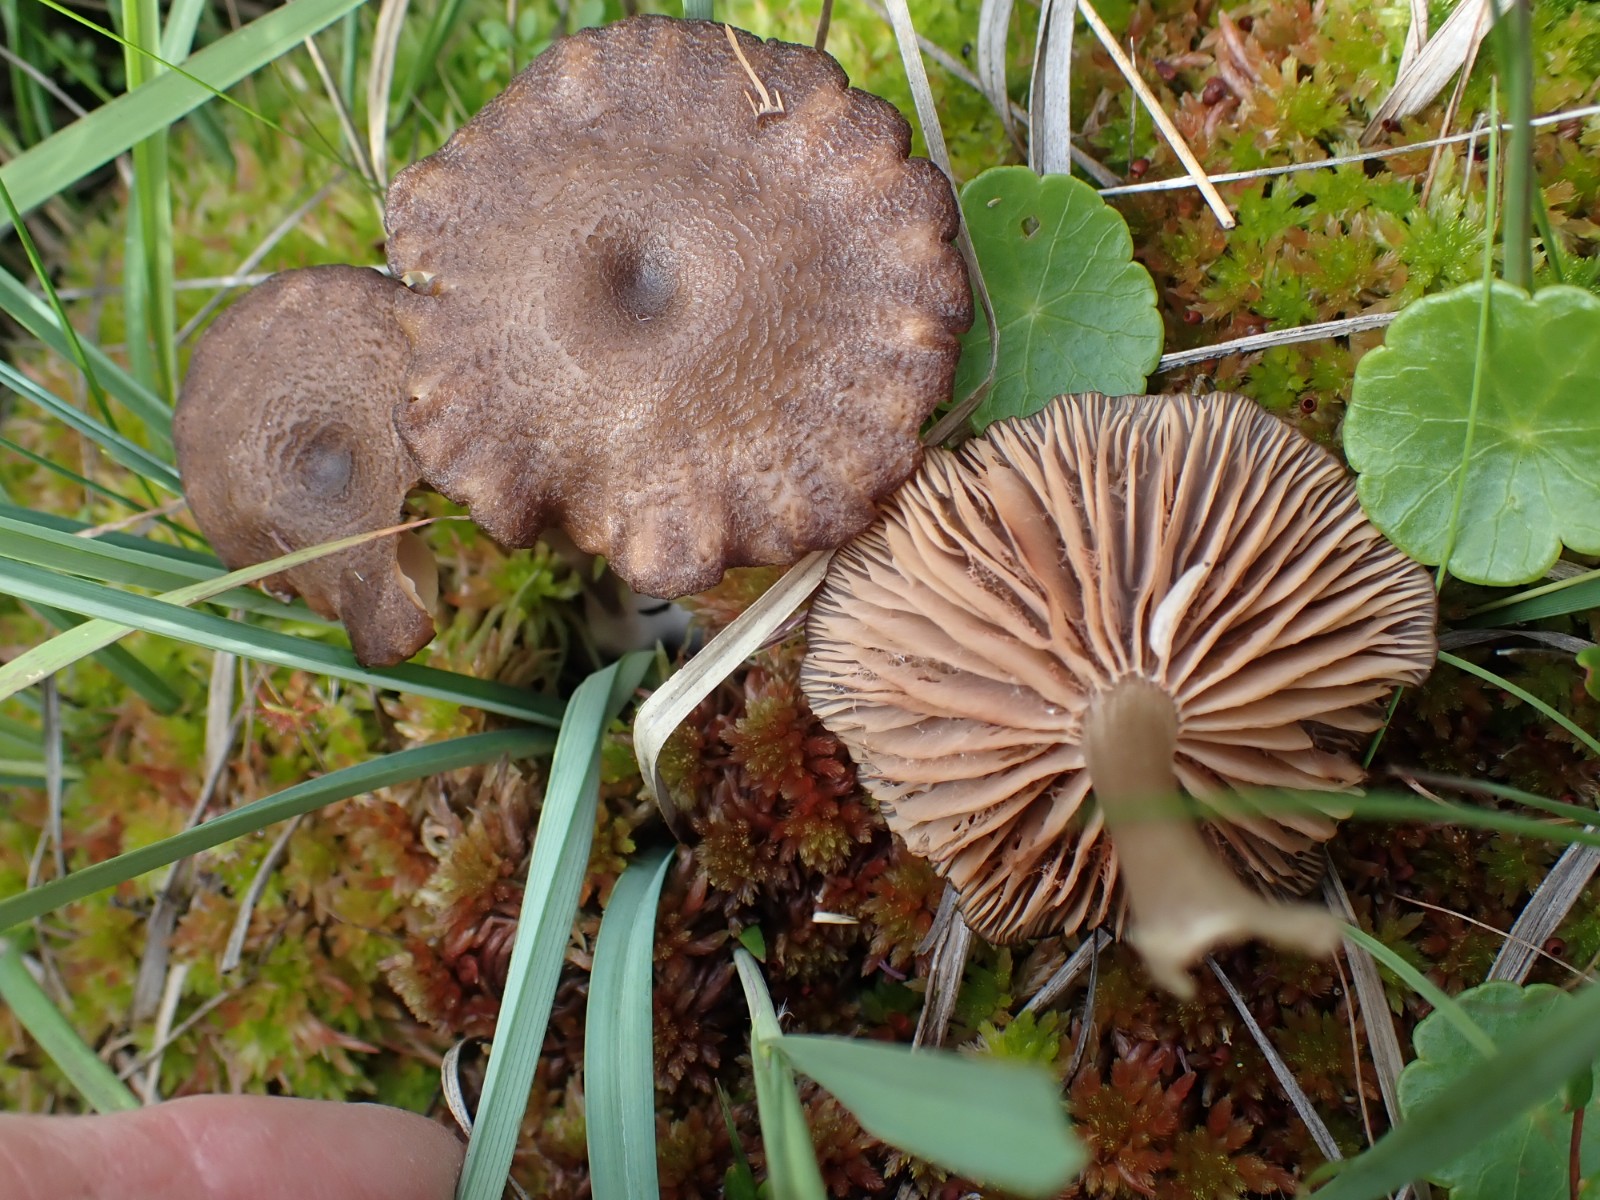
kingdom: Fungi
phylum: Basidiomycota
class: Agaricomycetes
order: Agaricales
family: Entolomataceae
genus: Entoloma
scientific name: Entoloma sphagnorum
